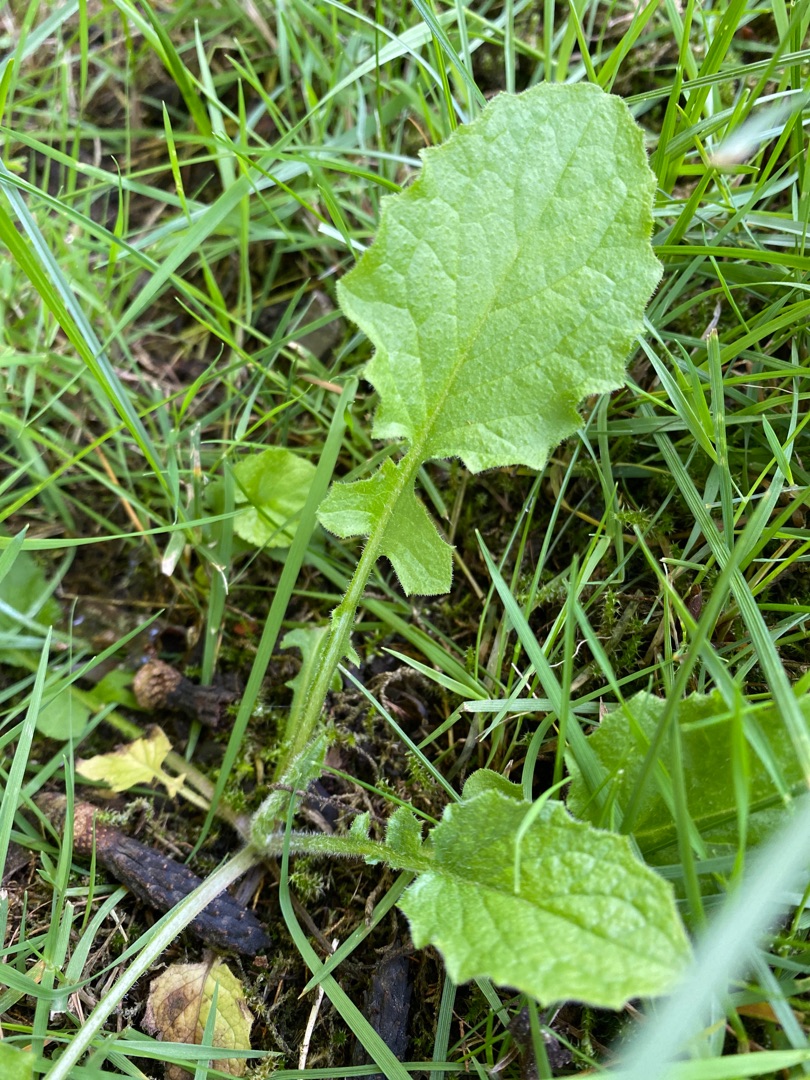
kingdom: Plantae
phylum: Tracheophyta
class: Magnoliopsida
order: Asterales
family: Asteraceae
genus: Lapsana
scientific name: Lapsana communis
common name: Haremad
